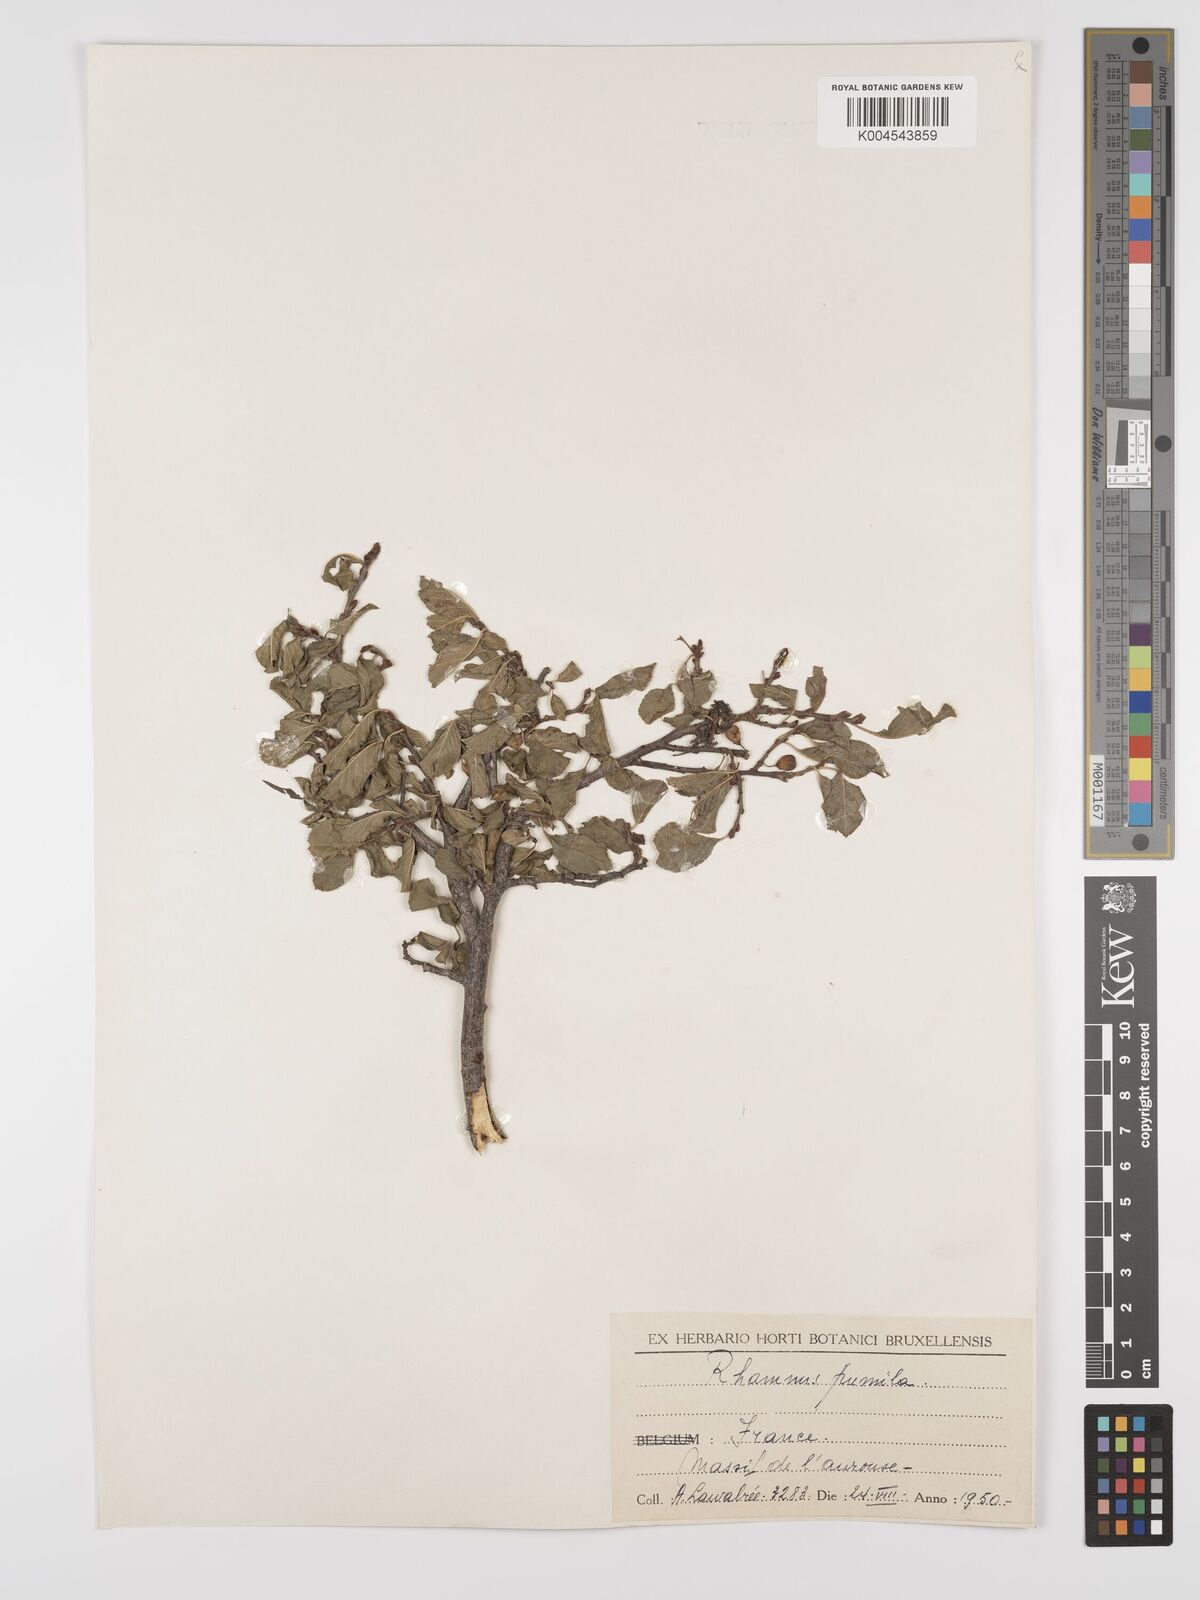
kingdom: Plantae
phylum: Tracheophyta
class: Magnoliopsida
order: Rosales
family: Rhamnaceae
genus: Rhamnus
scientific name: Rhamnus
